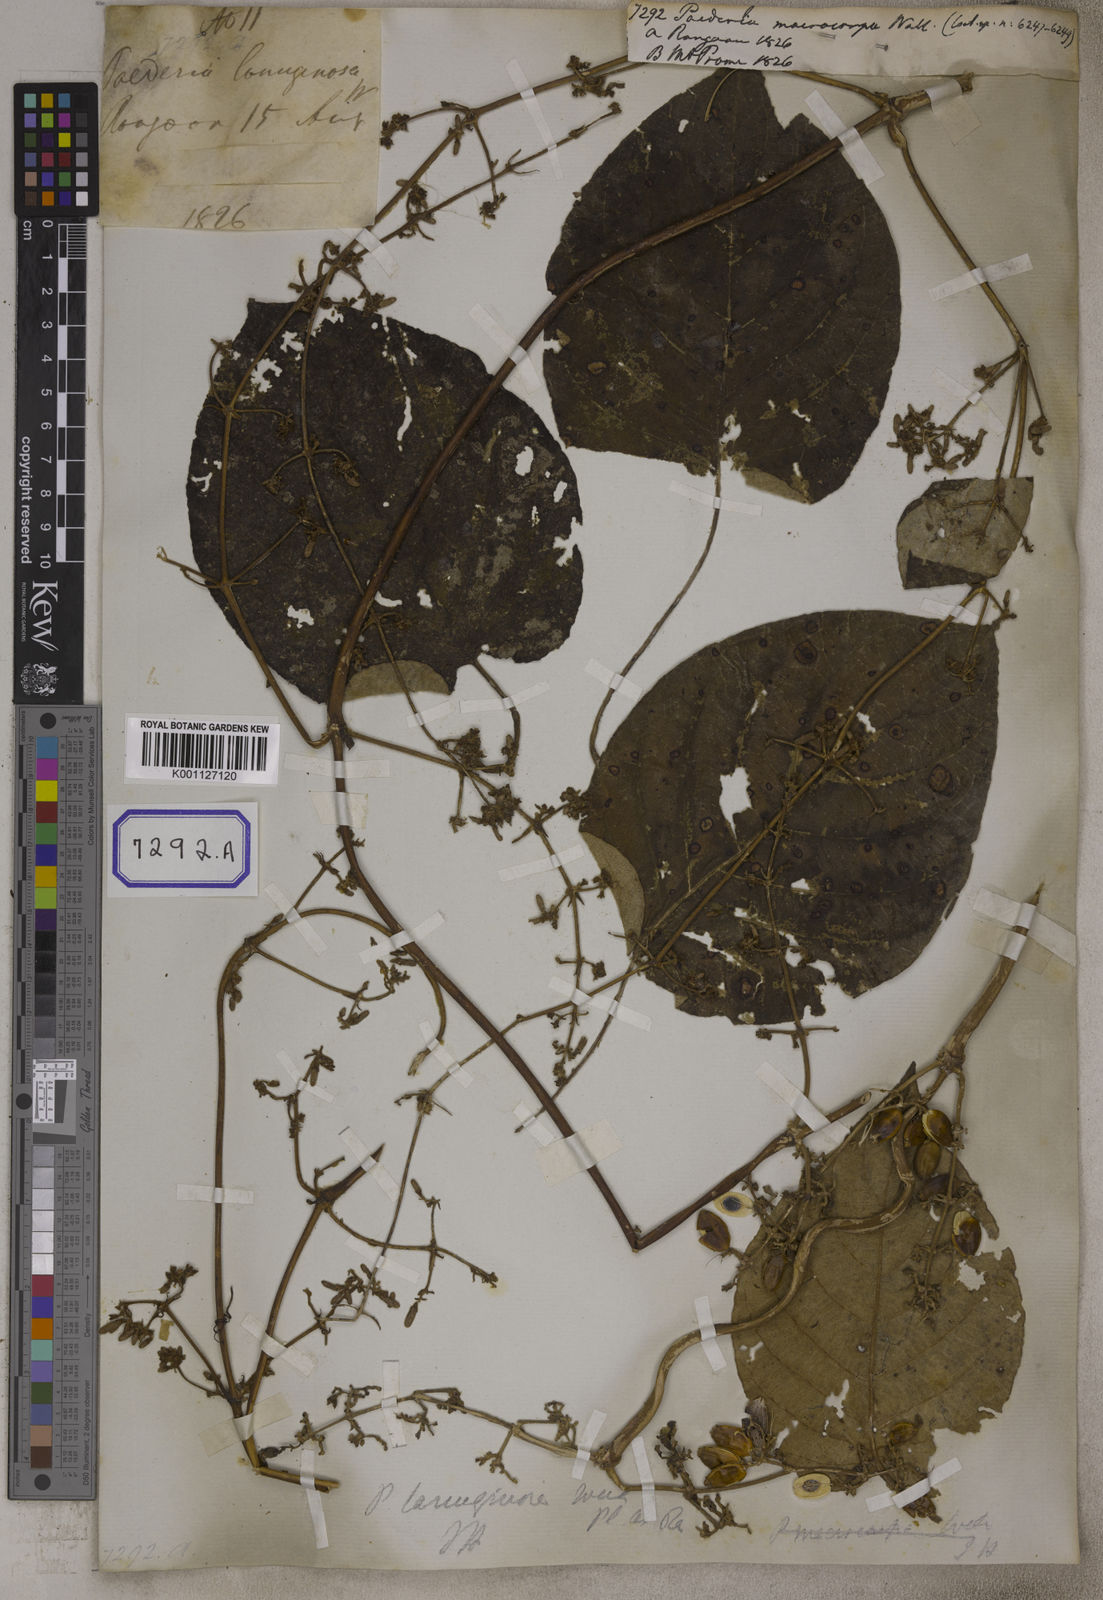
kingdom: Plantae
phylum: Tracheophyta
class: Magnoliopsida
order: Gentianales
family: Rubiaceae
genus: Paederia
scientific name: Paederia
